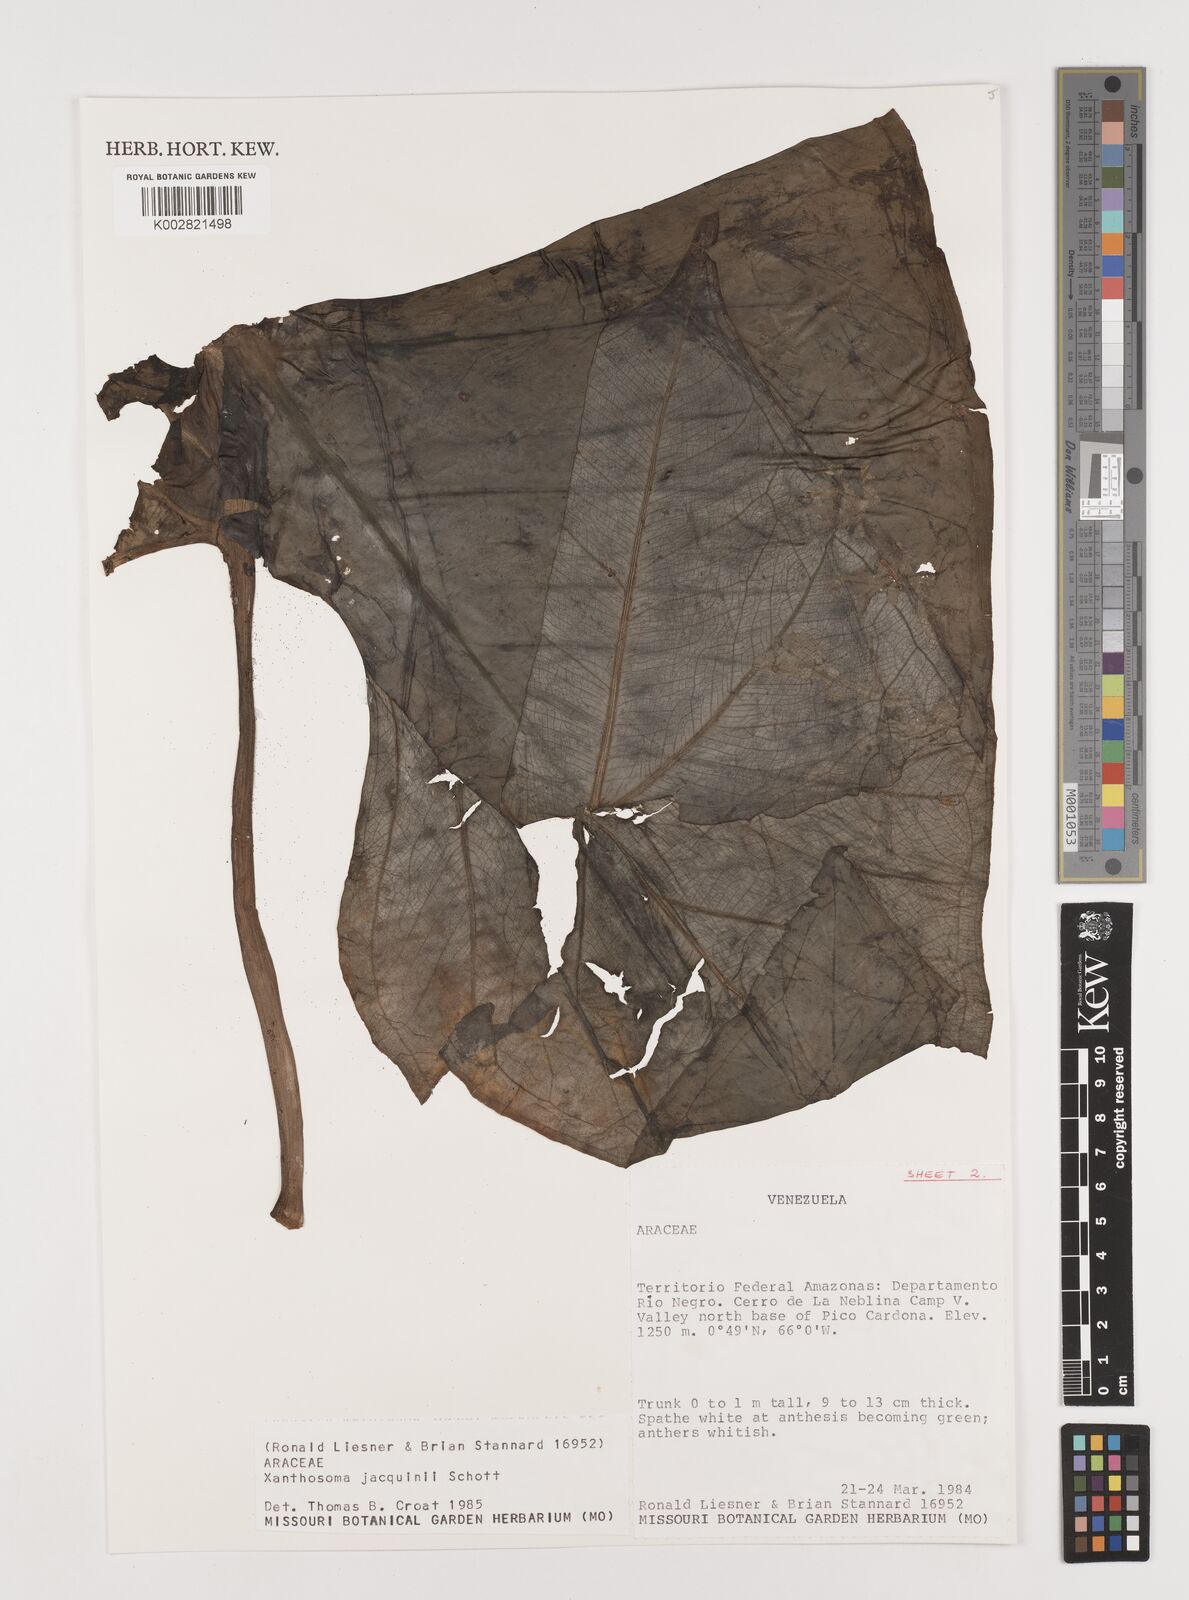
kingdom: Plantae
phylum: Tracheophyta
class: Liliopsida
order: Alismatales
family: Araceae
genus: Xanthosoma
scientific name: Xanthosoma undipes
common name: Tall elephant's ear
